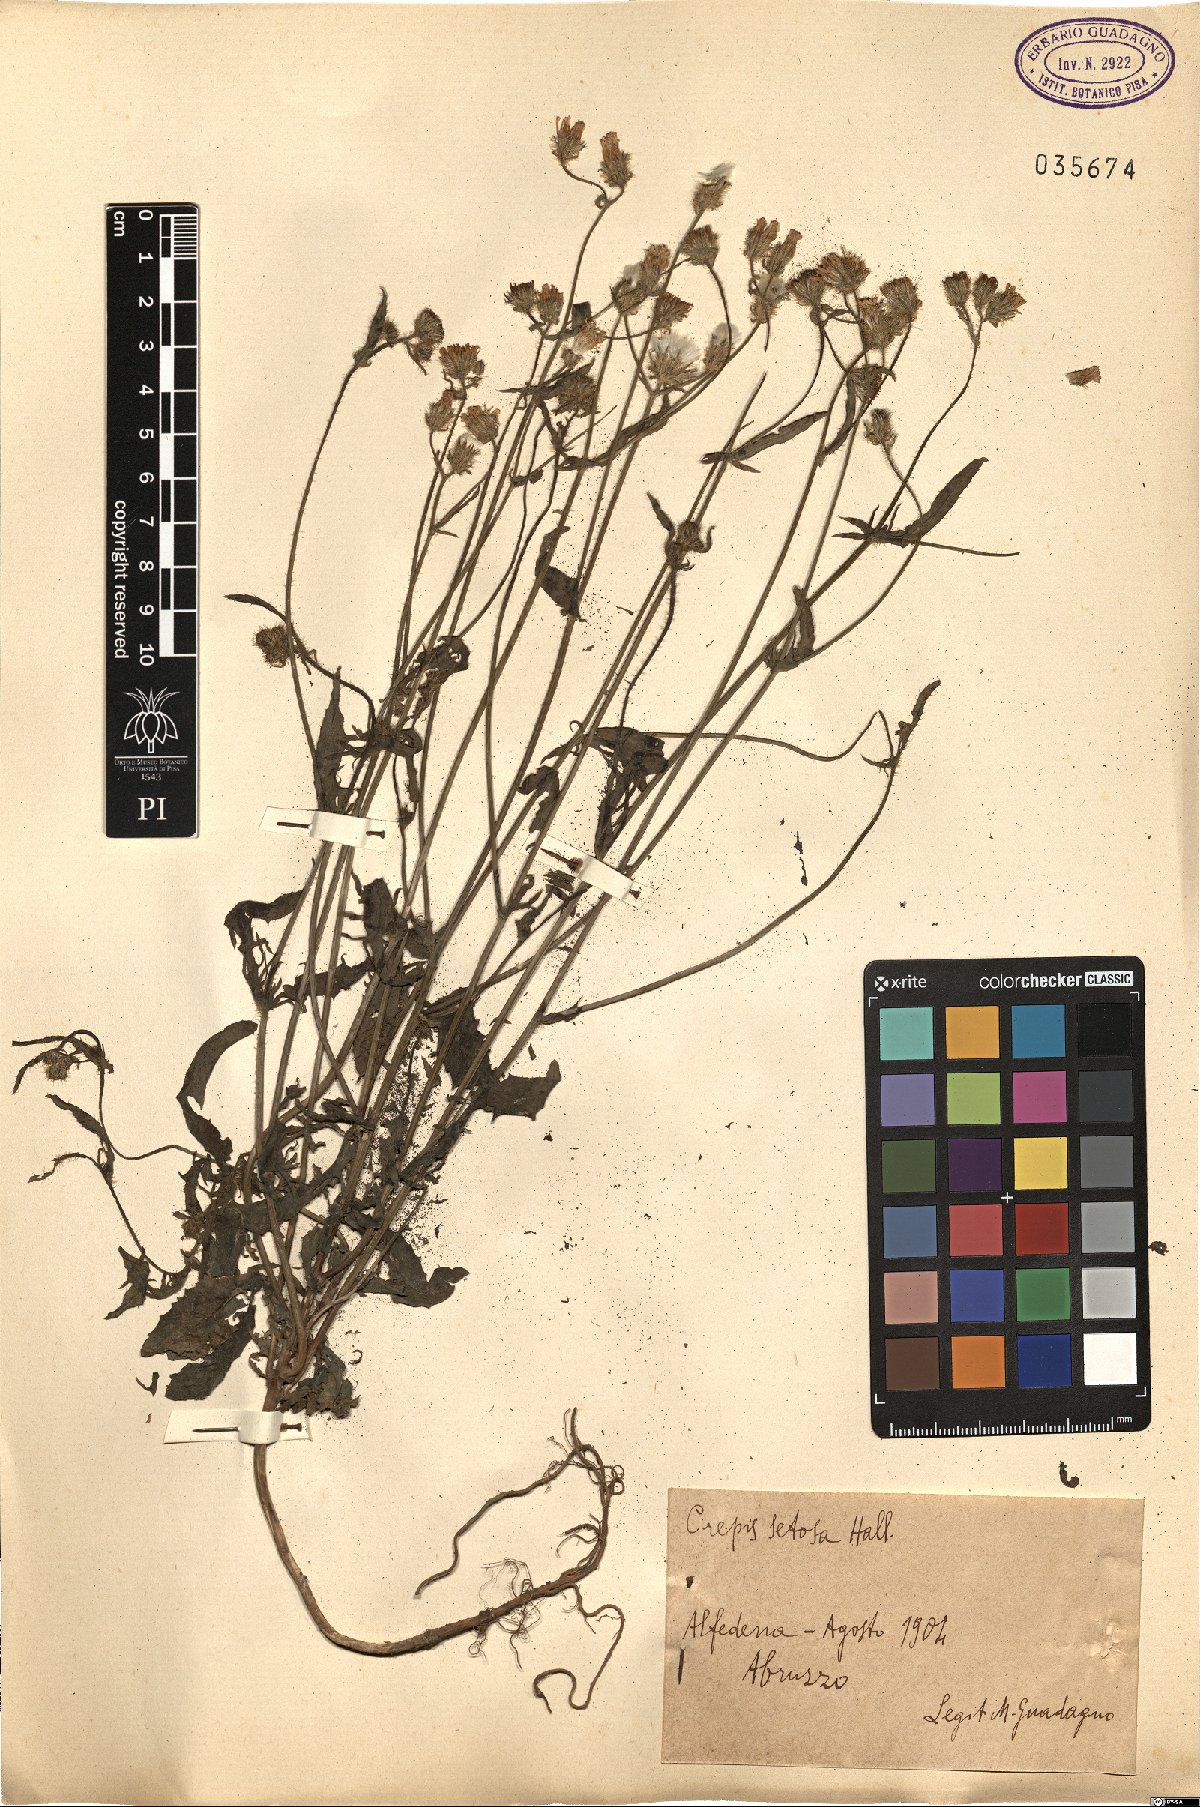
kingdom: Plantae
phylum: Tracheophyta
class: Magnoliopsida
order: Asterales
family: Asteraceae
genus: Crepis
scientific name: Crepis setosa
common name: Bristly hawk's-beard
